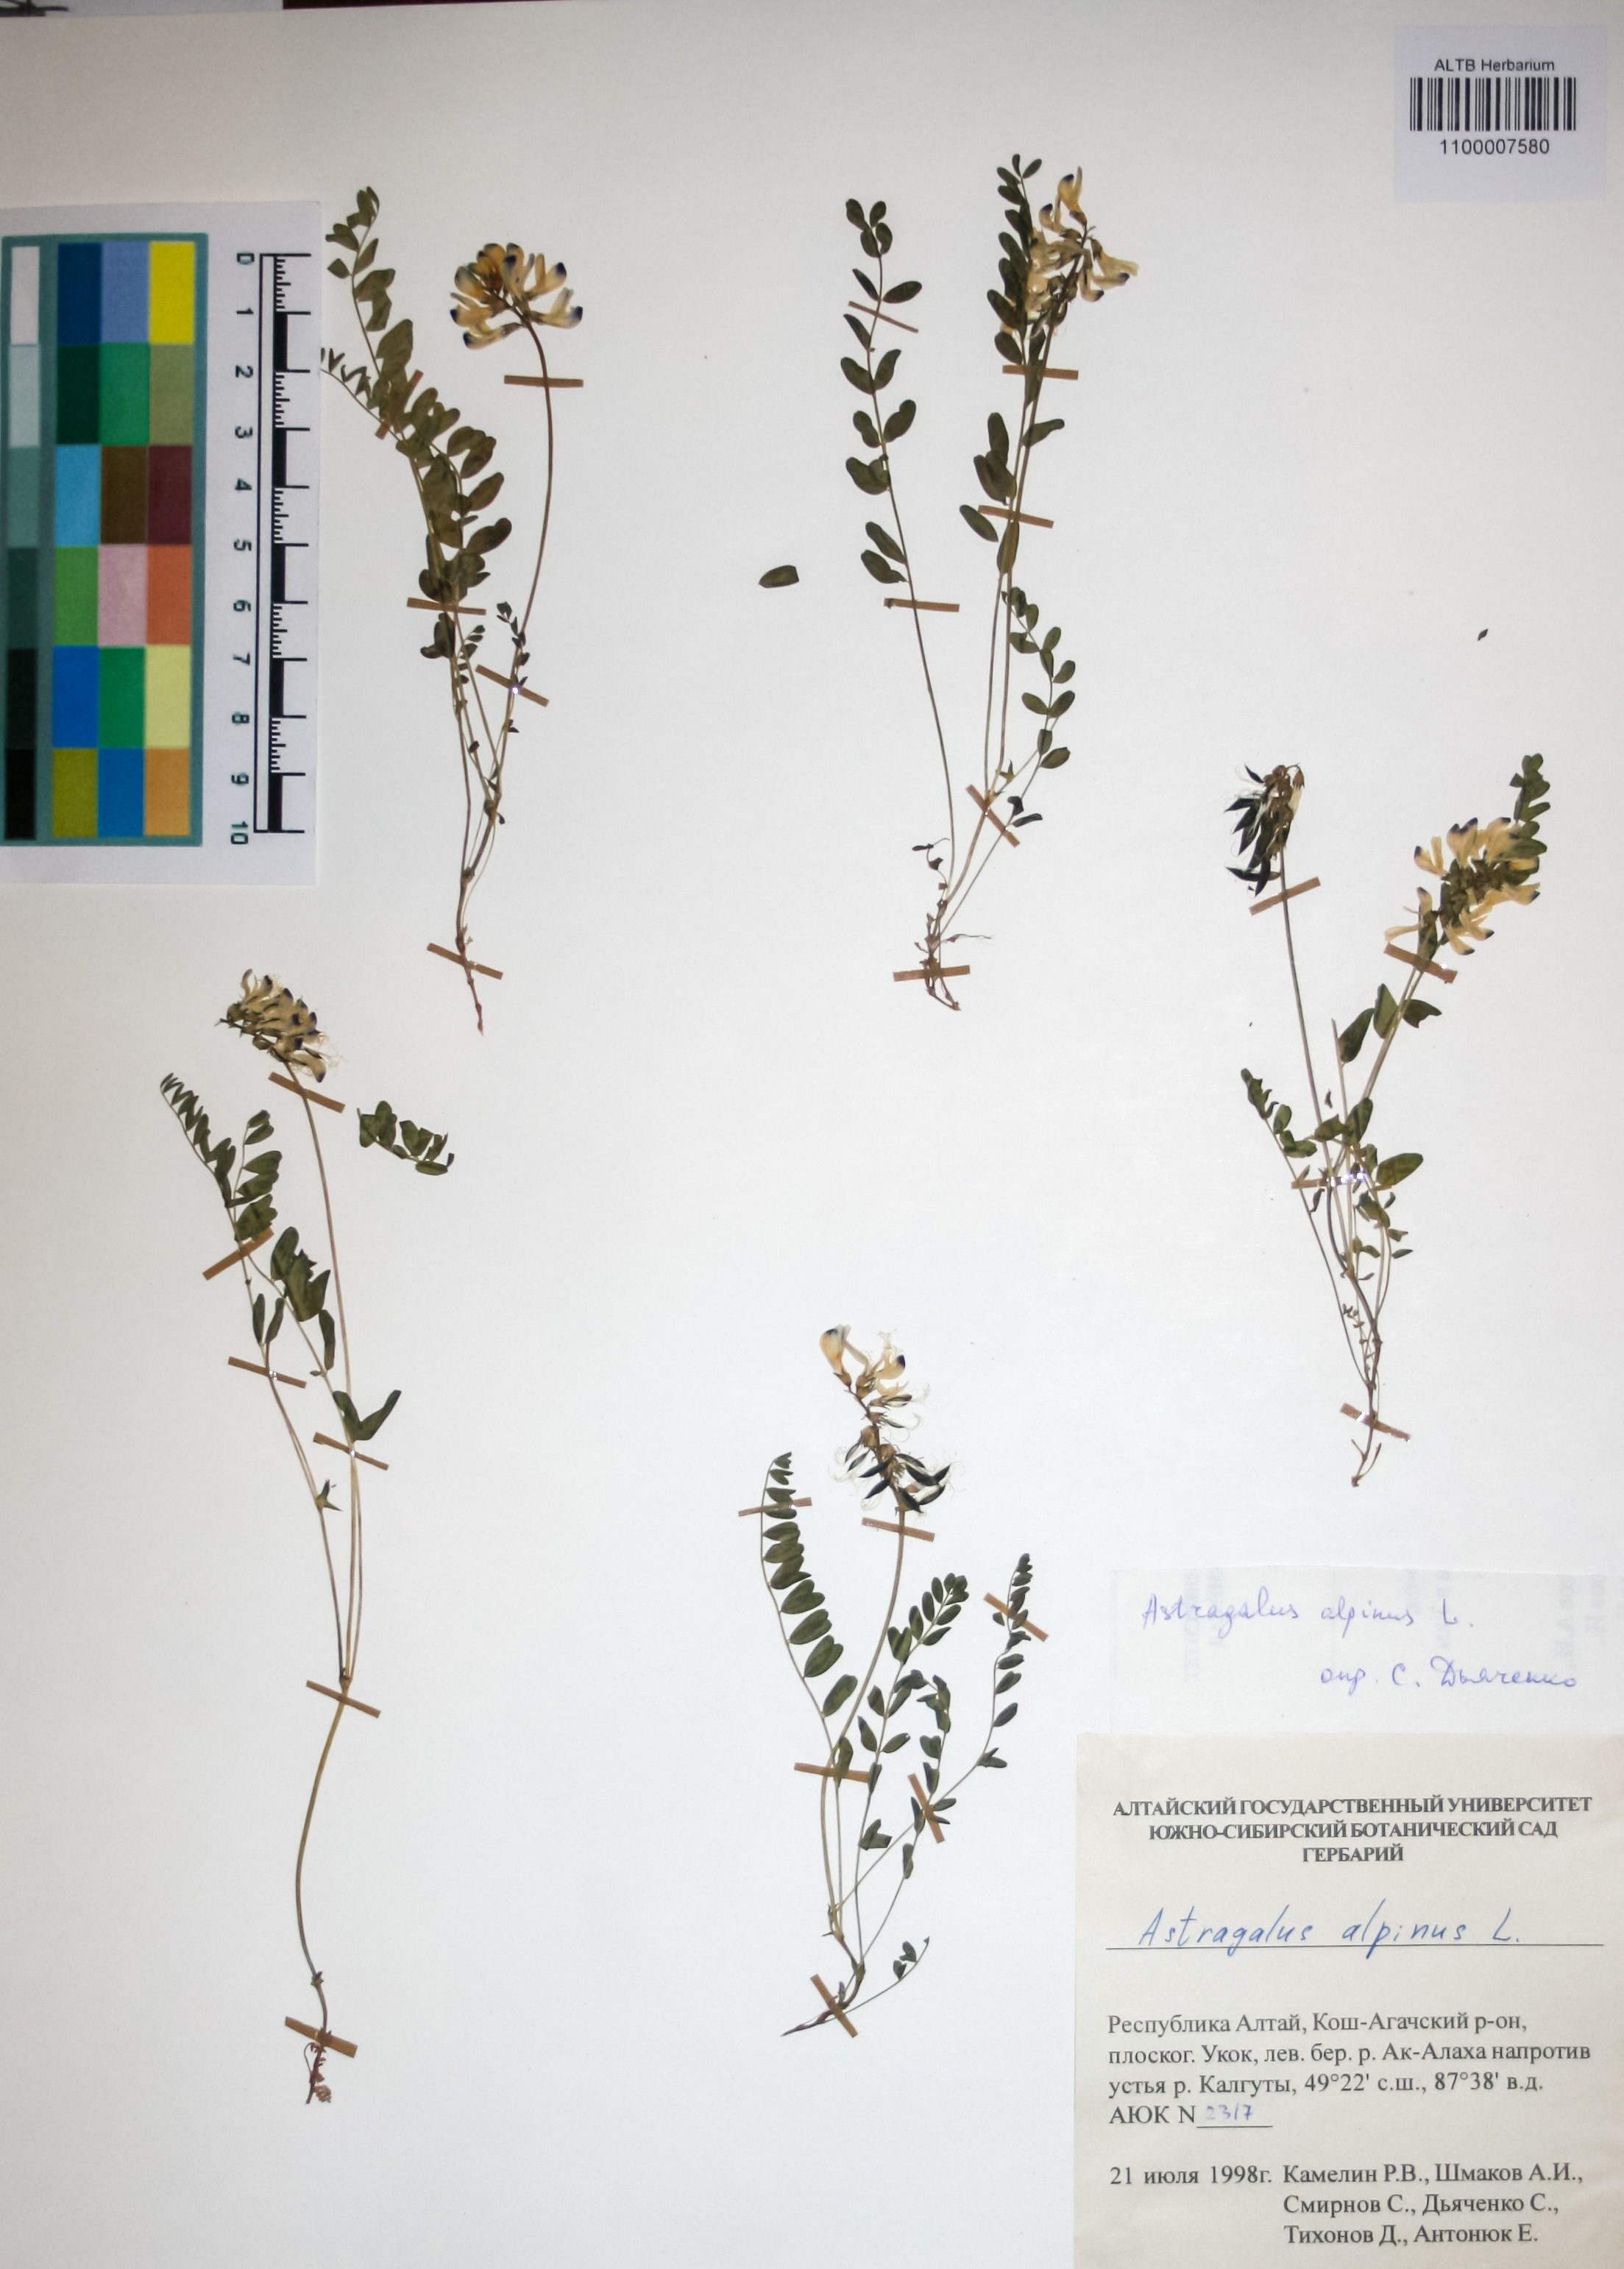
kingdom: Plantae
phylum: Tracheophyta
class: Magnoliopsida
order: Fabales
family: Fabaceae
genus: Astragalus
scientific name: Astragalus alpinus
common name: Alpine milk-vetch
